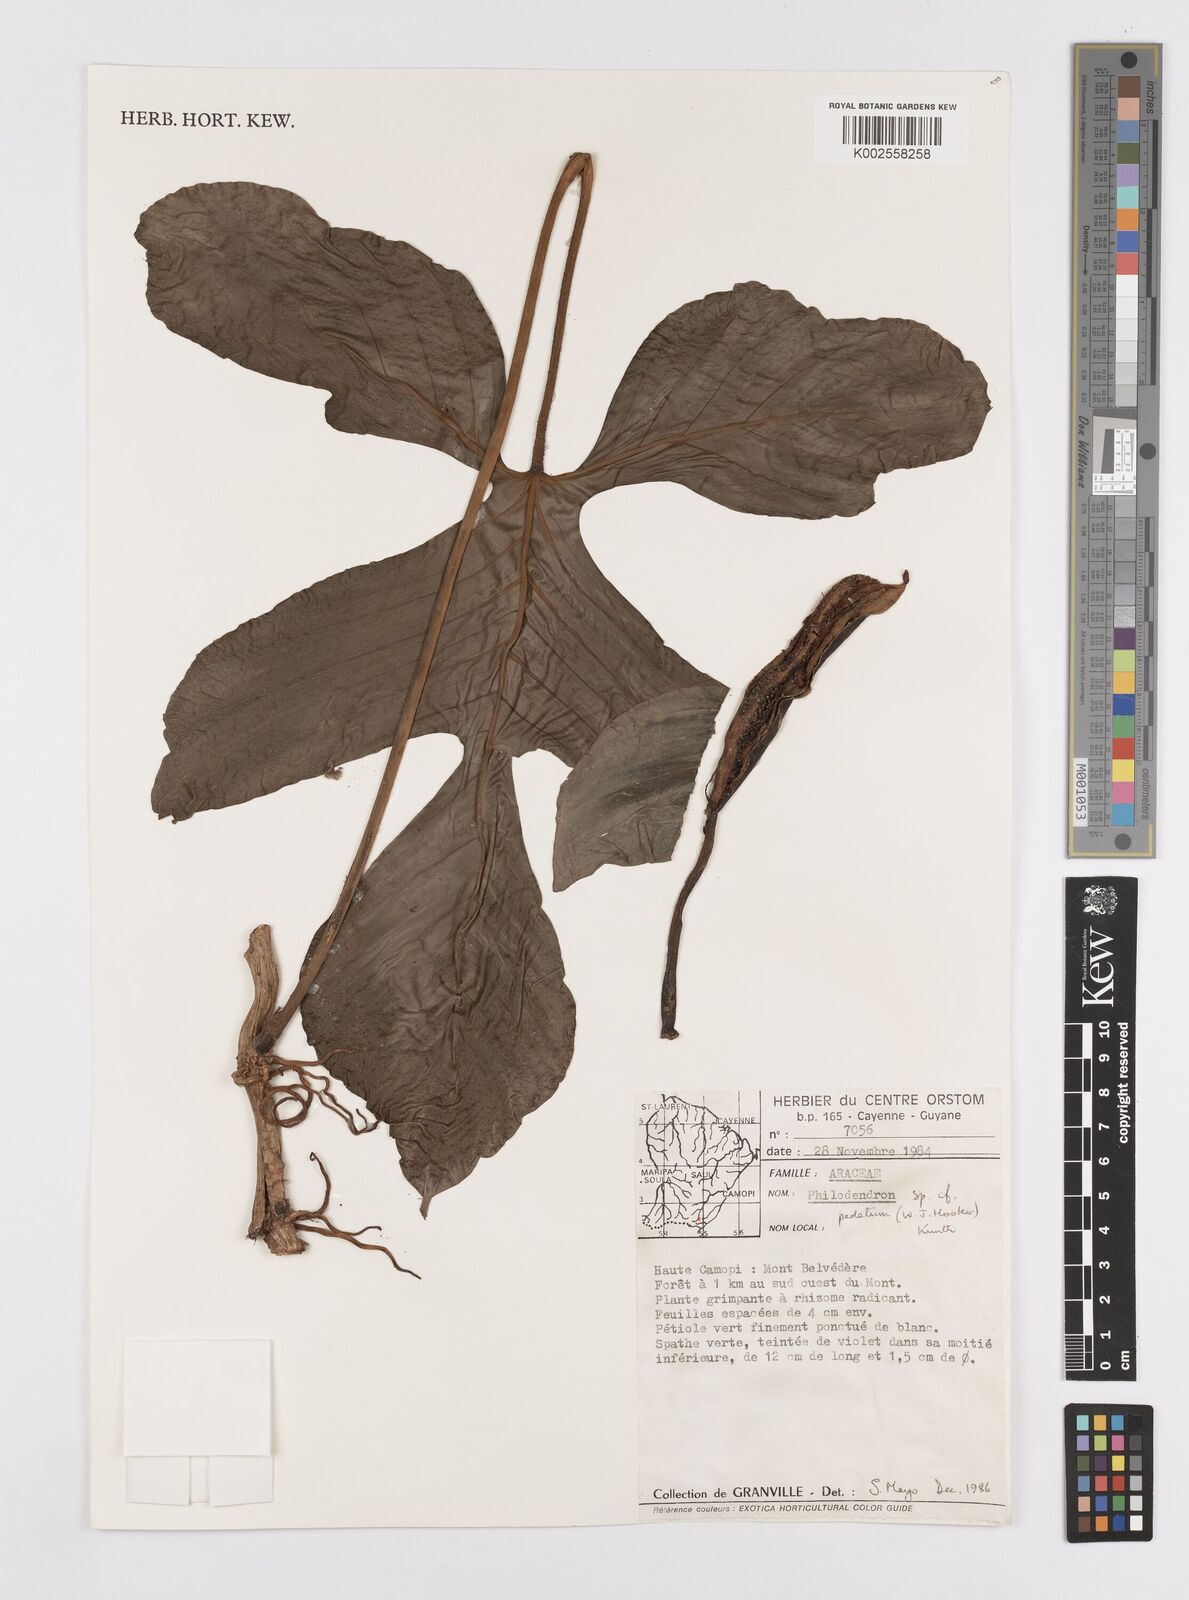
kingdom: Plantae
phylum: Tracheophyta
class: Liliopsida
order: Alismatales
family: Araceae
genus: Philodendron
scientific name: Philodendron pedatum
